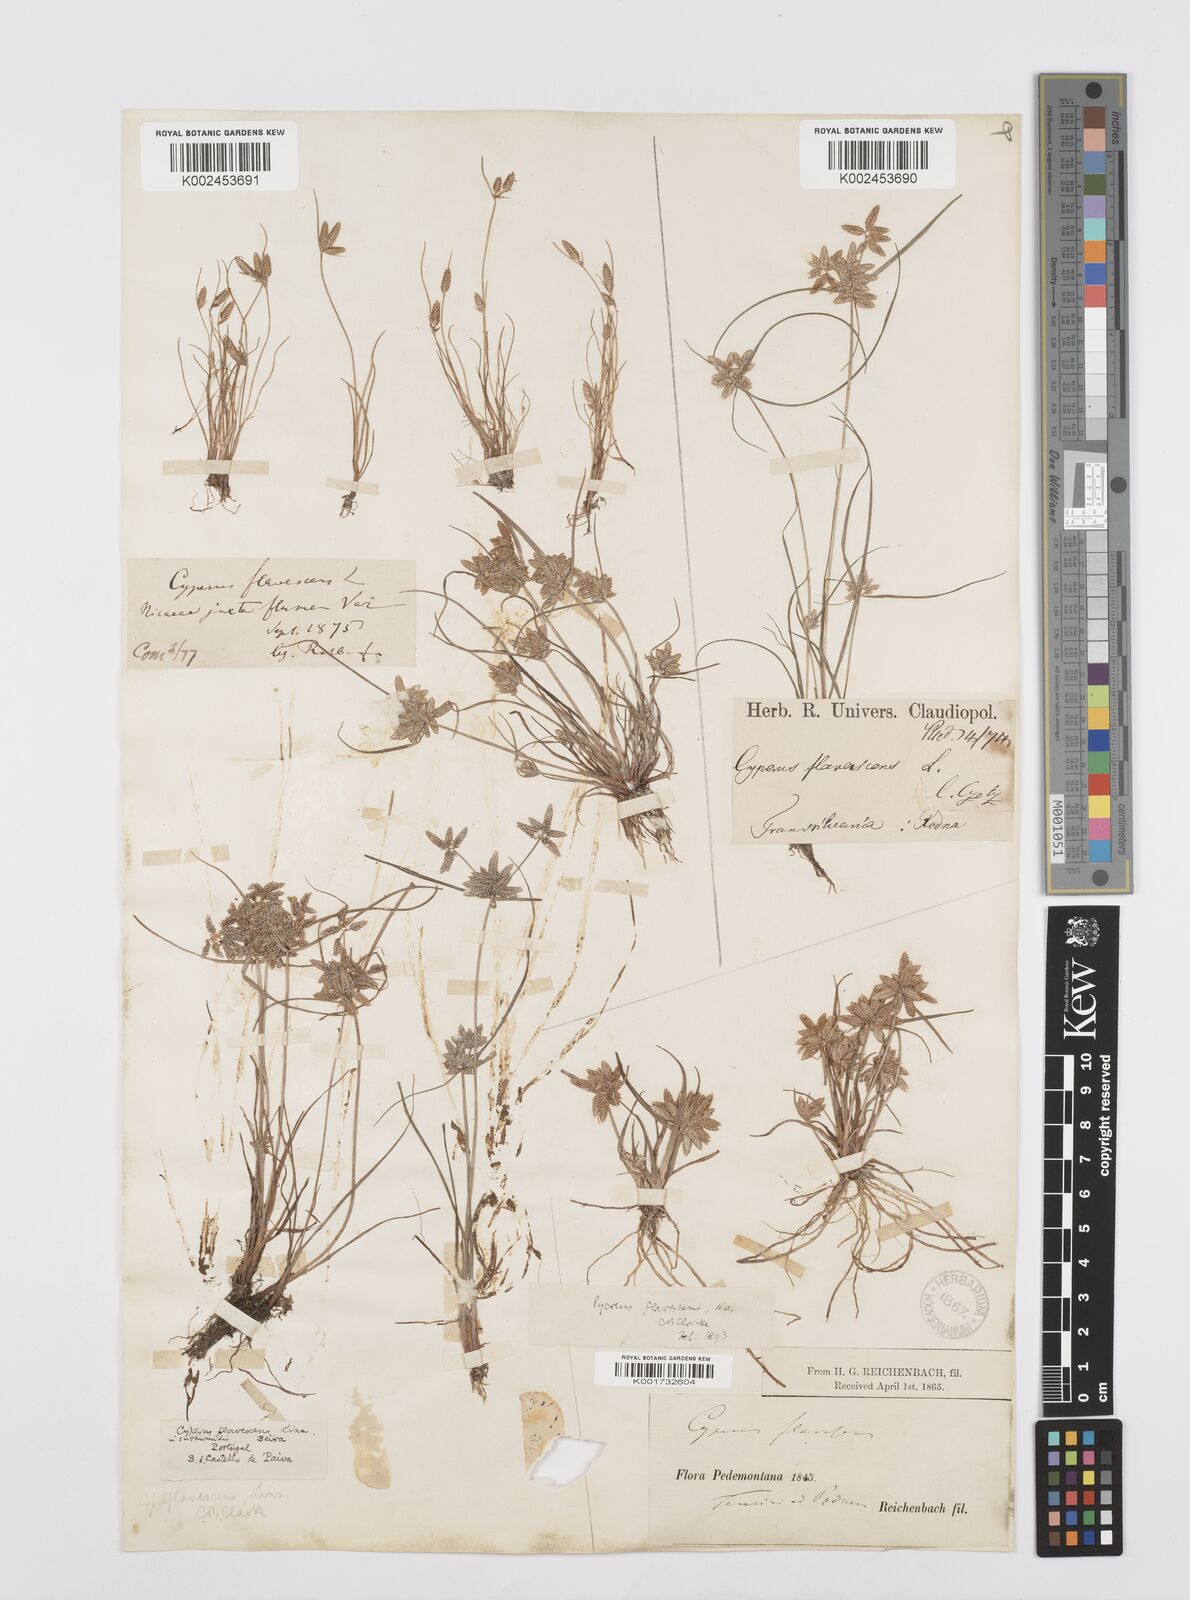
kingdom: Plantae
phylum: Tracheophyta
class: Liliopsida
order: Poales
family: Cyperaceae
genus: Cyperus
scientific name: Cyperus flavescens
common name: Yellow galingale
